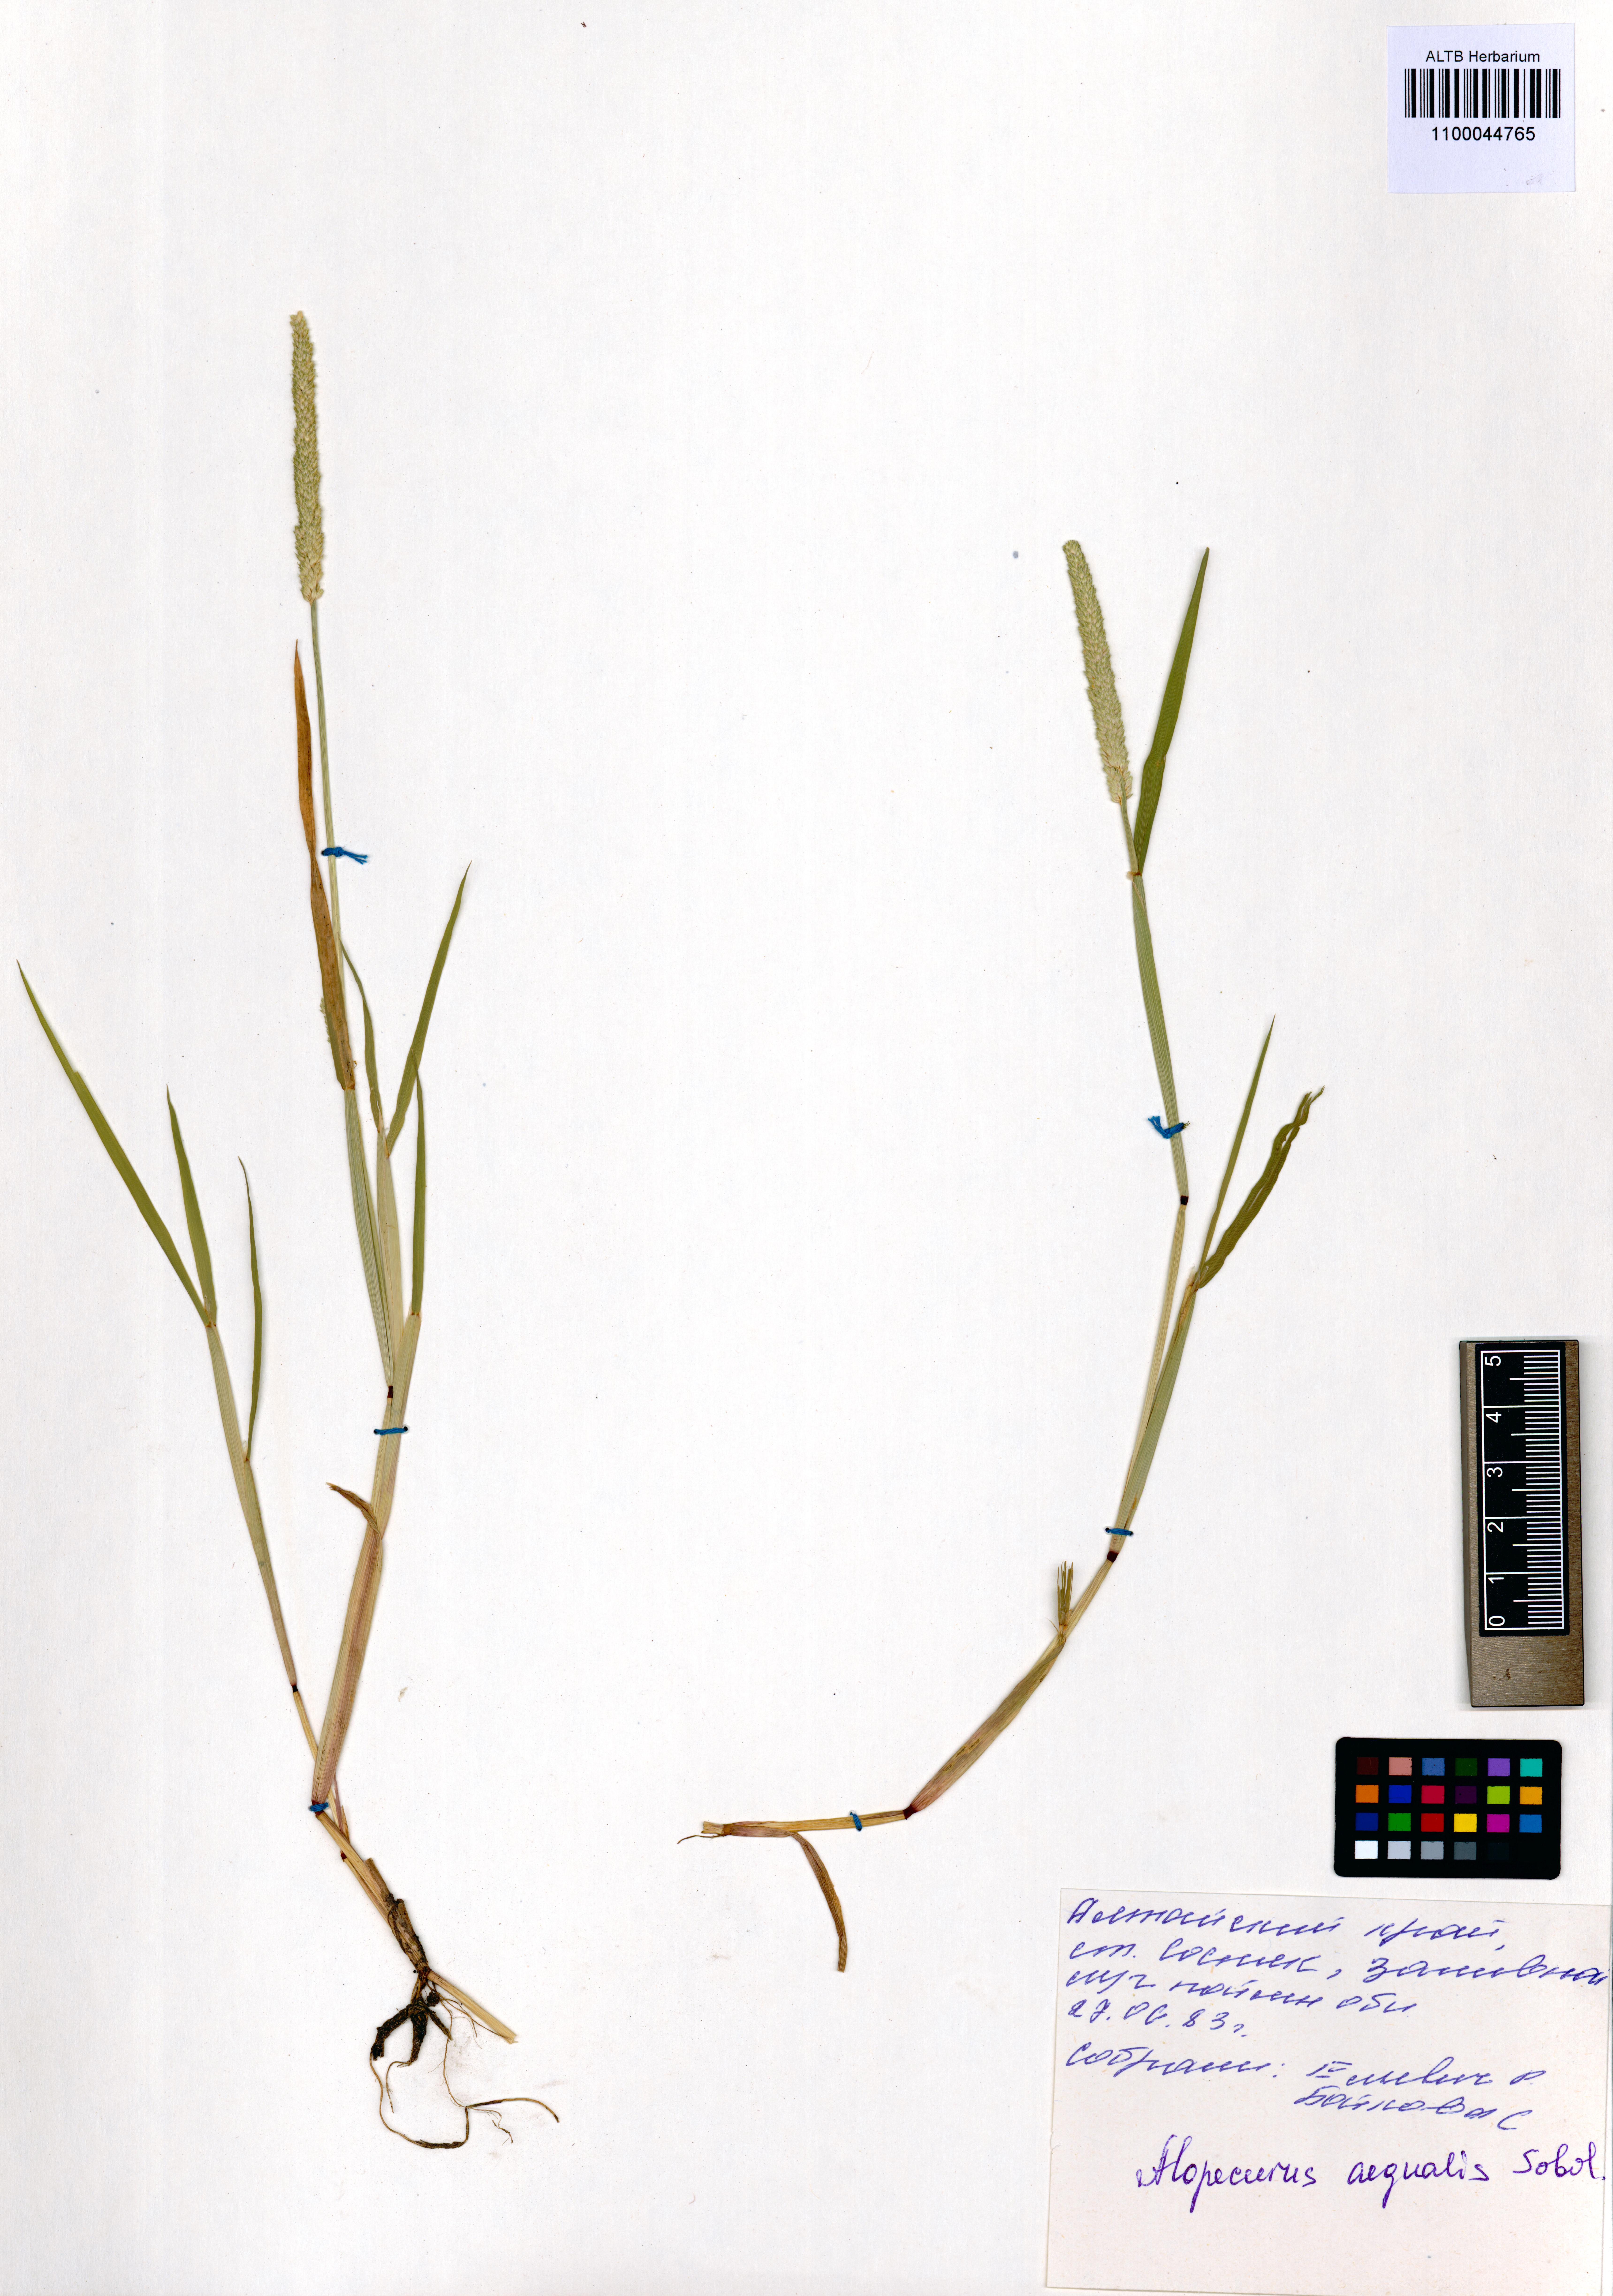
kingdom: Plantae
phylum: Tracheophyta
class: Liliopsida
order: Poales
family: Poaceae
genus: Alopecurus
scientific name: Alopecurus aequalis
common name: Orange foxtail
